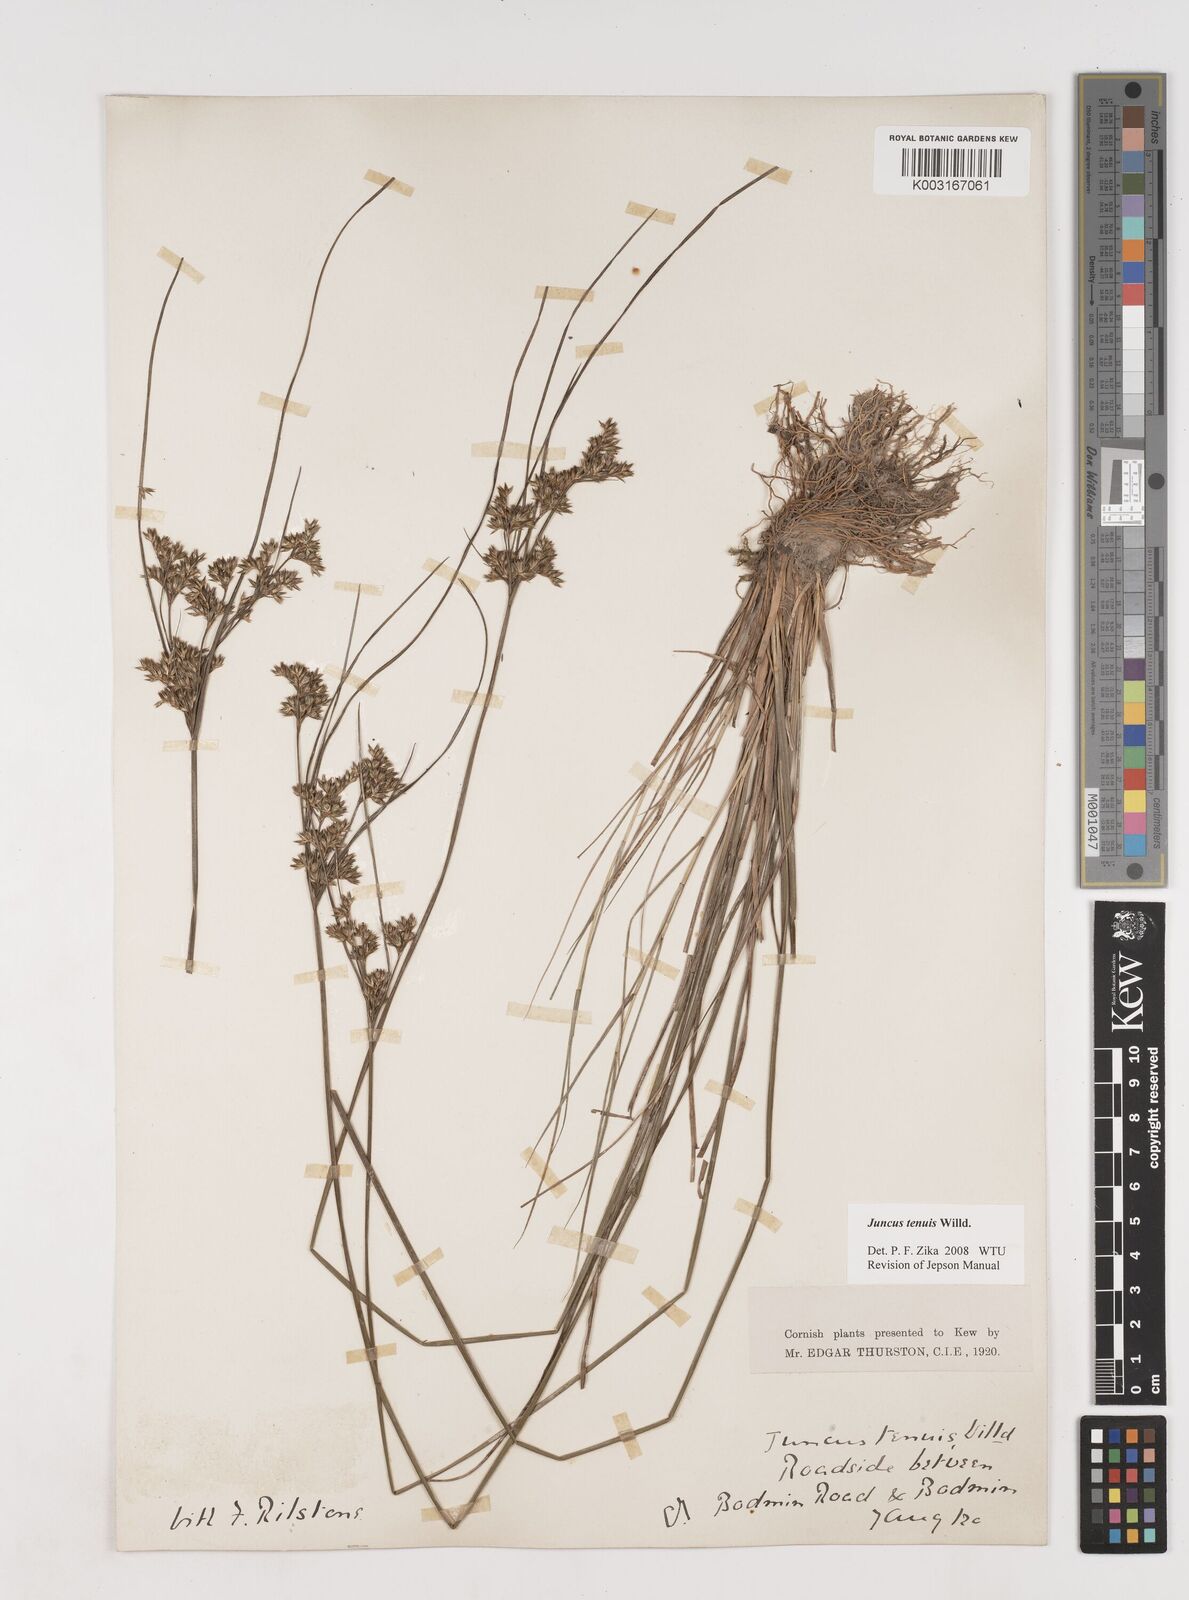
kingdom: Plantae
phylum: Tracheophyta
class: Liliopsida
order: Poales
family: Juncaceae
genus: Juncus
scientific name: Juncus tenuis
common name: Slender rush
